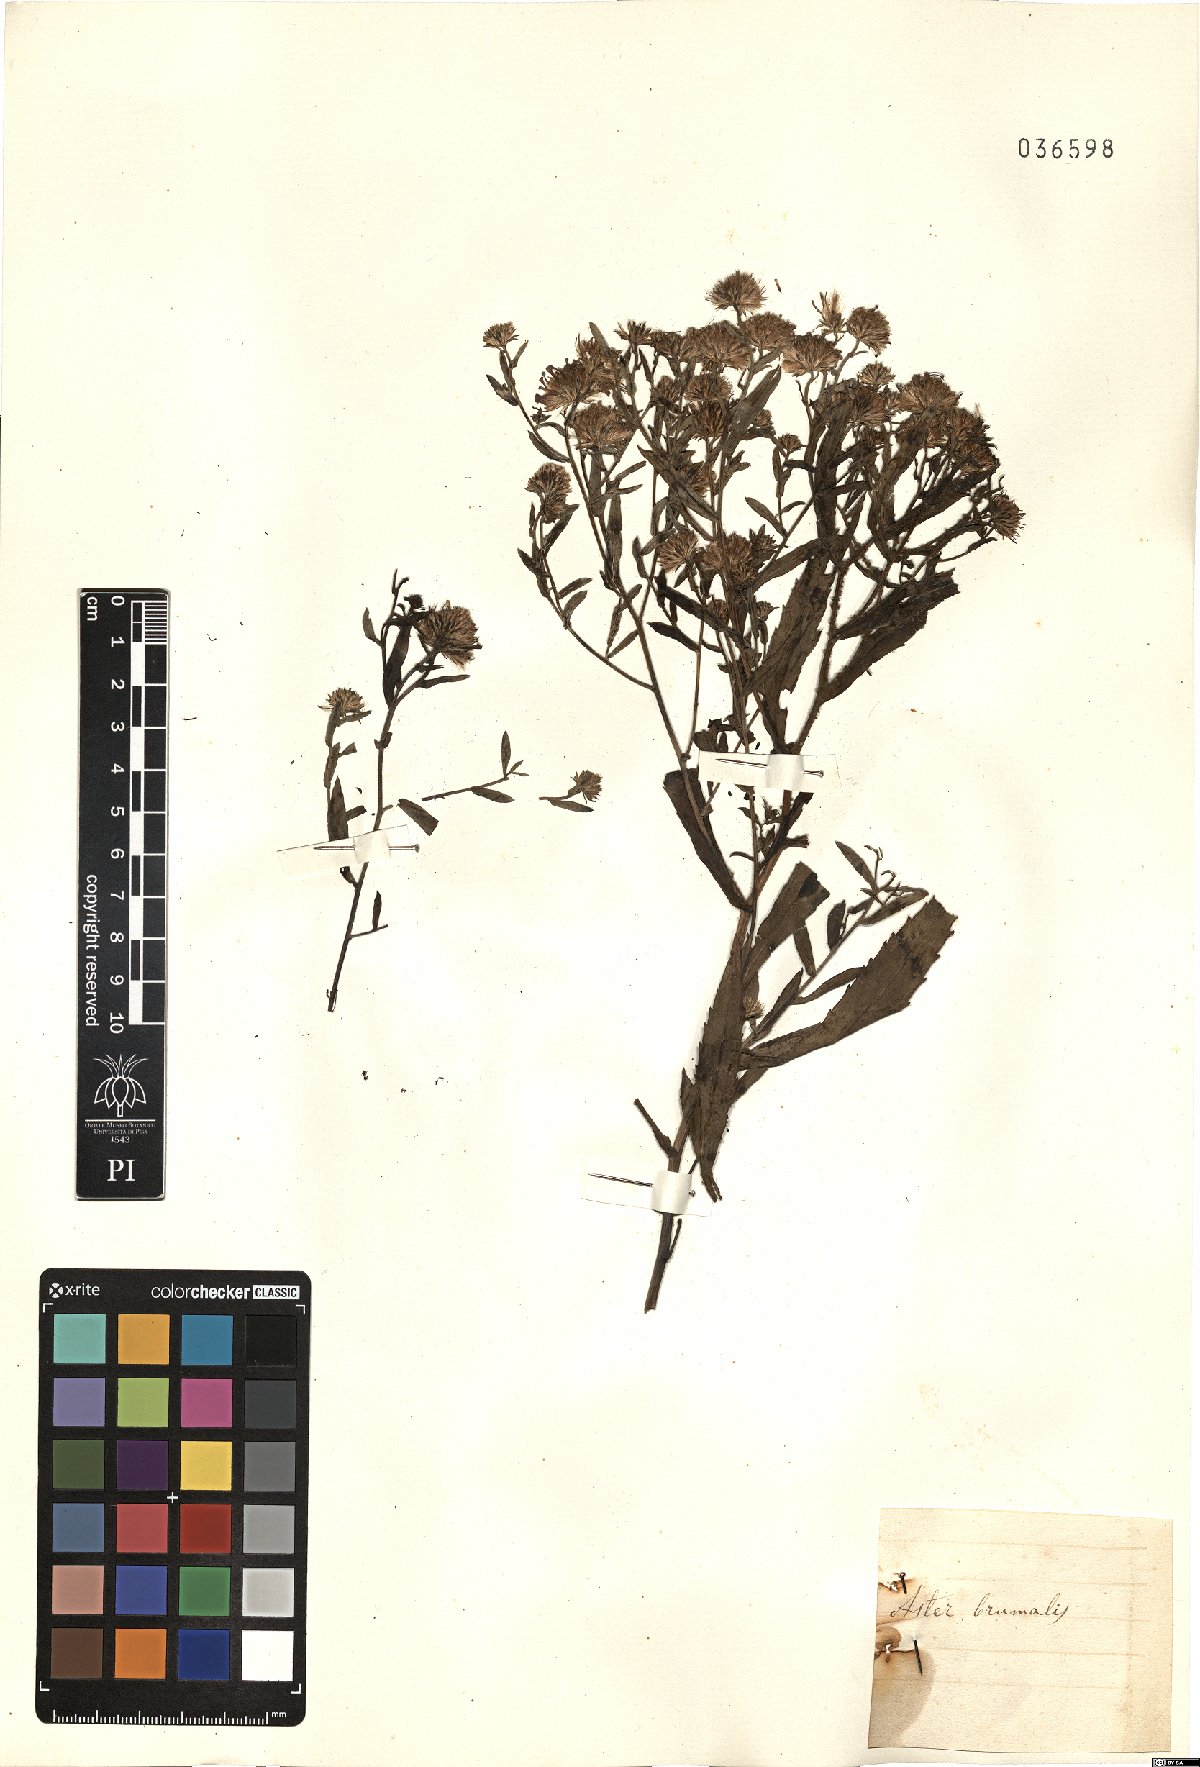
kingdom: Plantae
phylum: Tracheophyta
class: Magnoliopsida
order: Asterales
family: Asteraceae
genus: Symphyotrichum
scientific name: Symphyotrichum novi-belgii
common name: Michaelmas daisy
